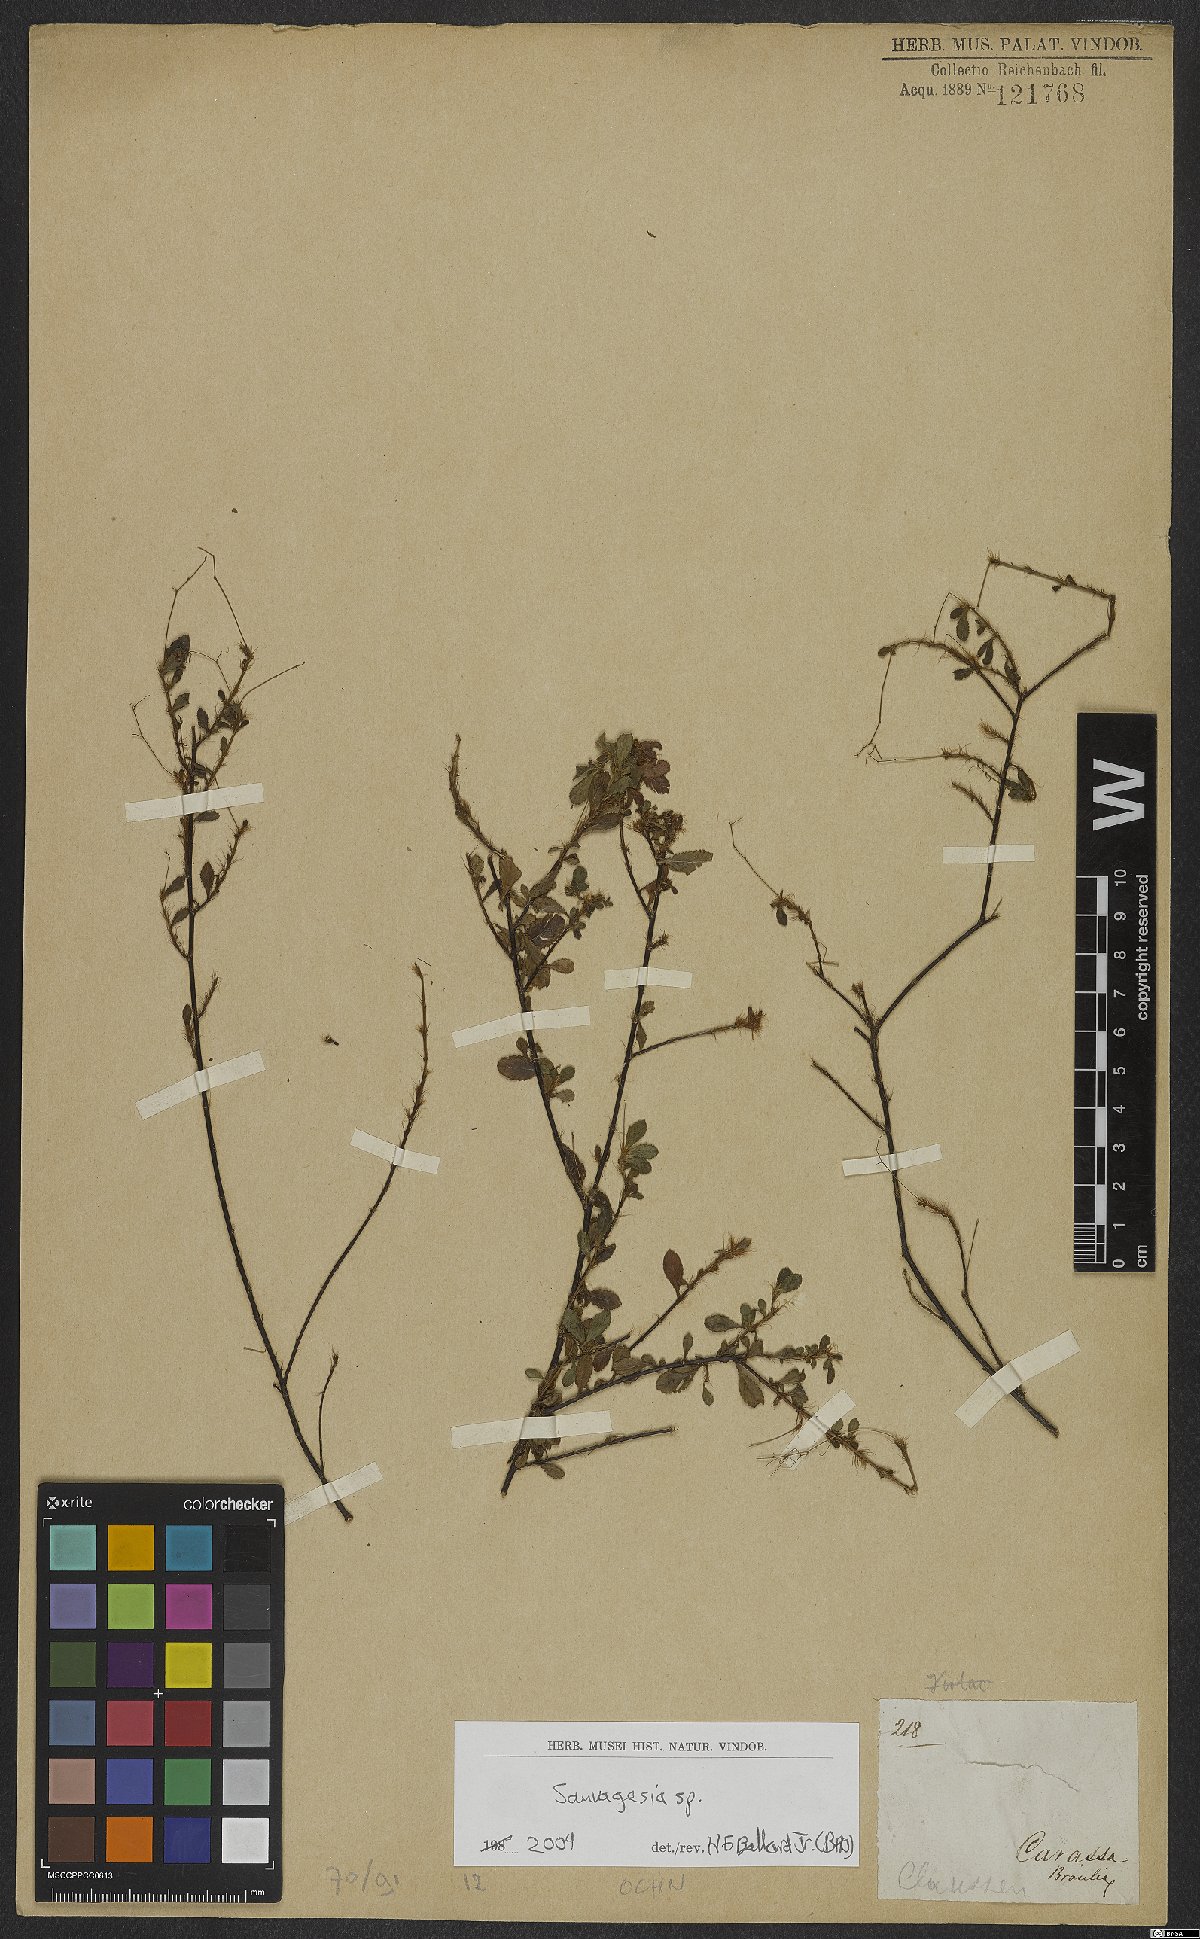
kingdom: Plantae
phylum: Tracheophyta
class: Magnoliopsida
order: Malpighiales
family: Ochnaceae
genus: Sauvagesia
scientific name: Sauvagesia
